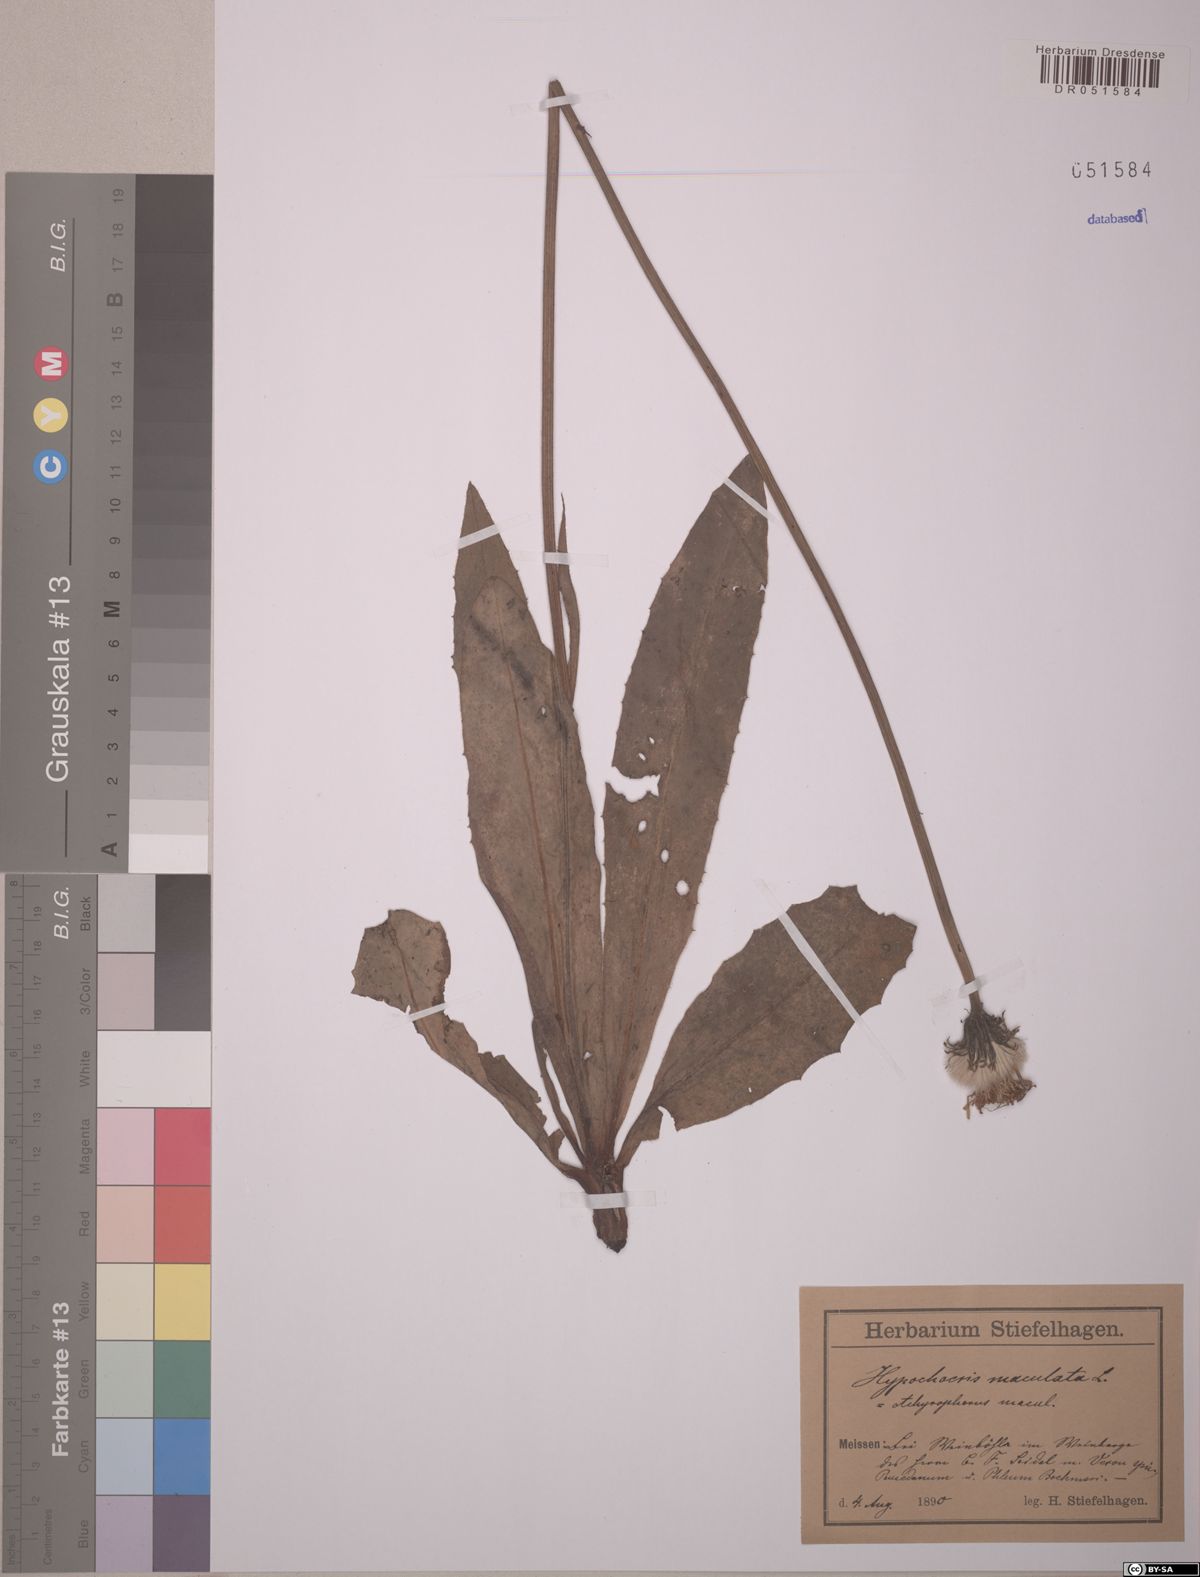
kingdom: Plantae
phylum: Tracheophyta
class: Magnoliopsida
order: Asterales
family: Asteraceae
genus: Trommsdorffia
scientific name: Trommsdorffia maculata
